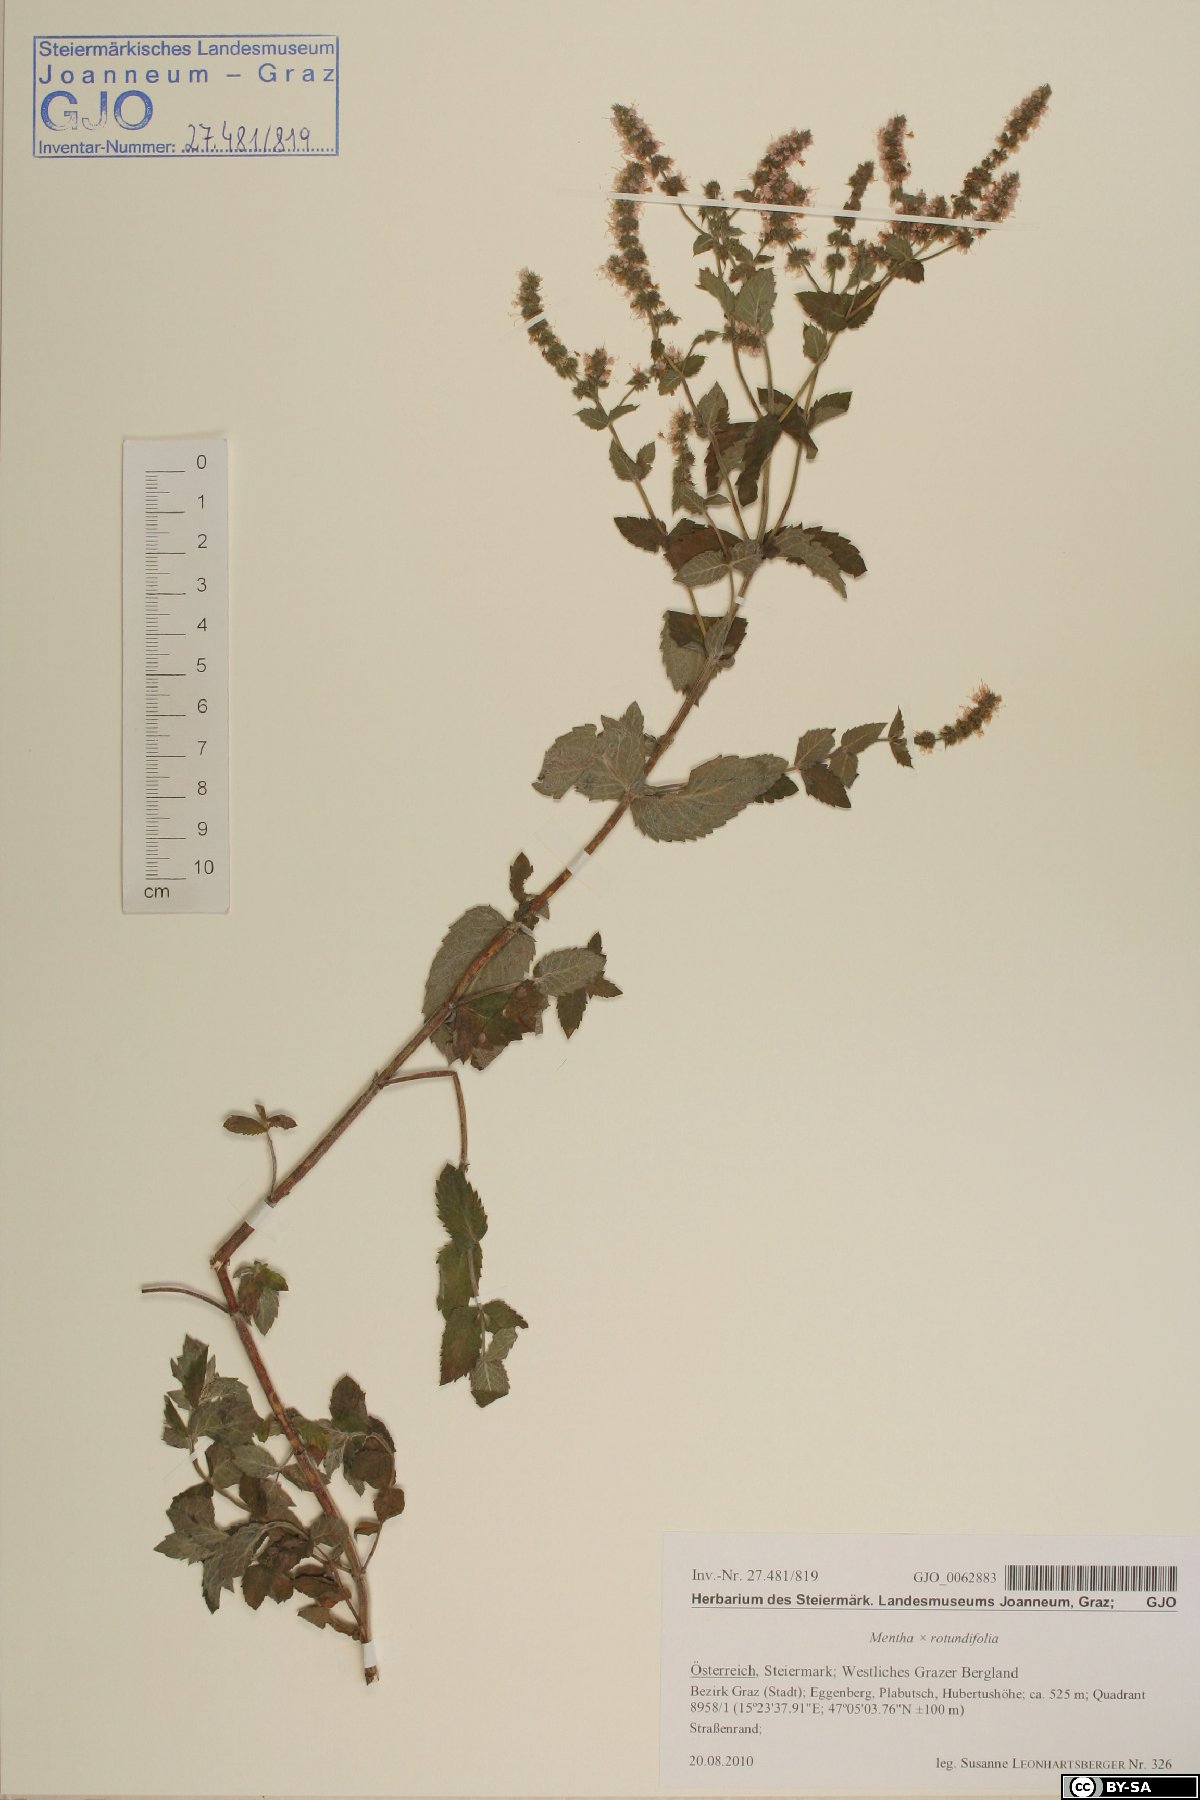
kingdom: Plantae
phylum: Tracheophyta
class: Magnoliopsida
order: Lamiales
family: Lamiaceae
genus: Mentha
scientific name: Mentha rotundifolia
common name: Bigleaf mint
